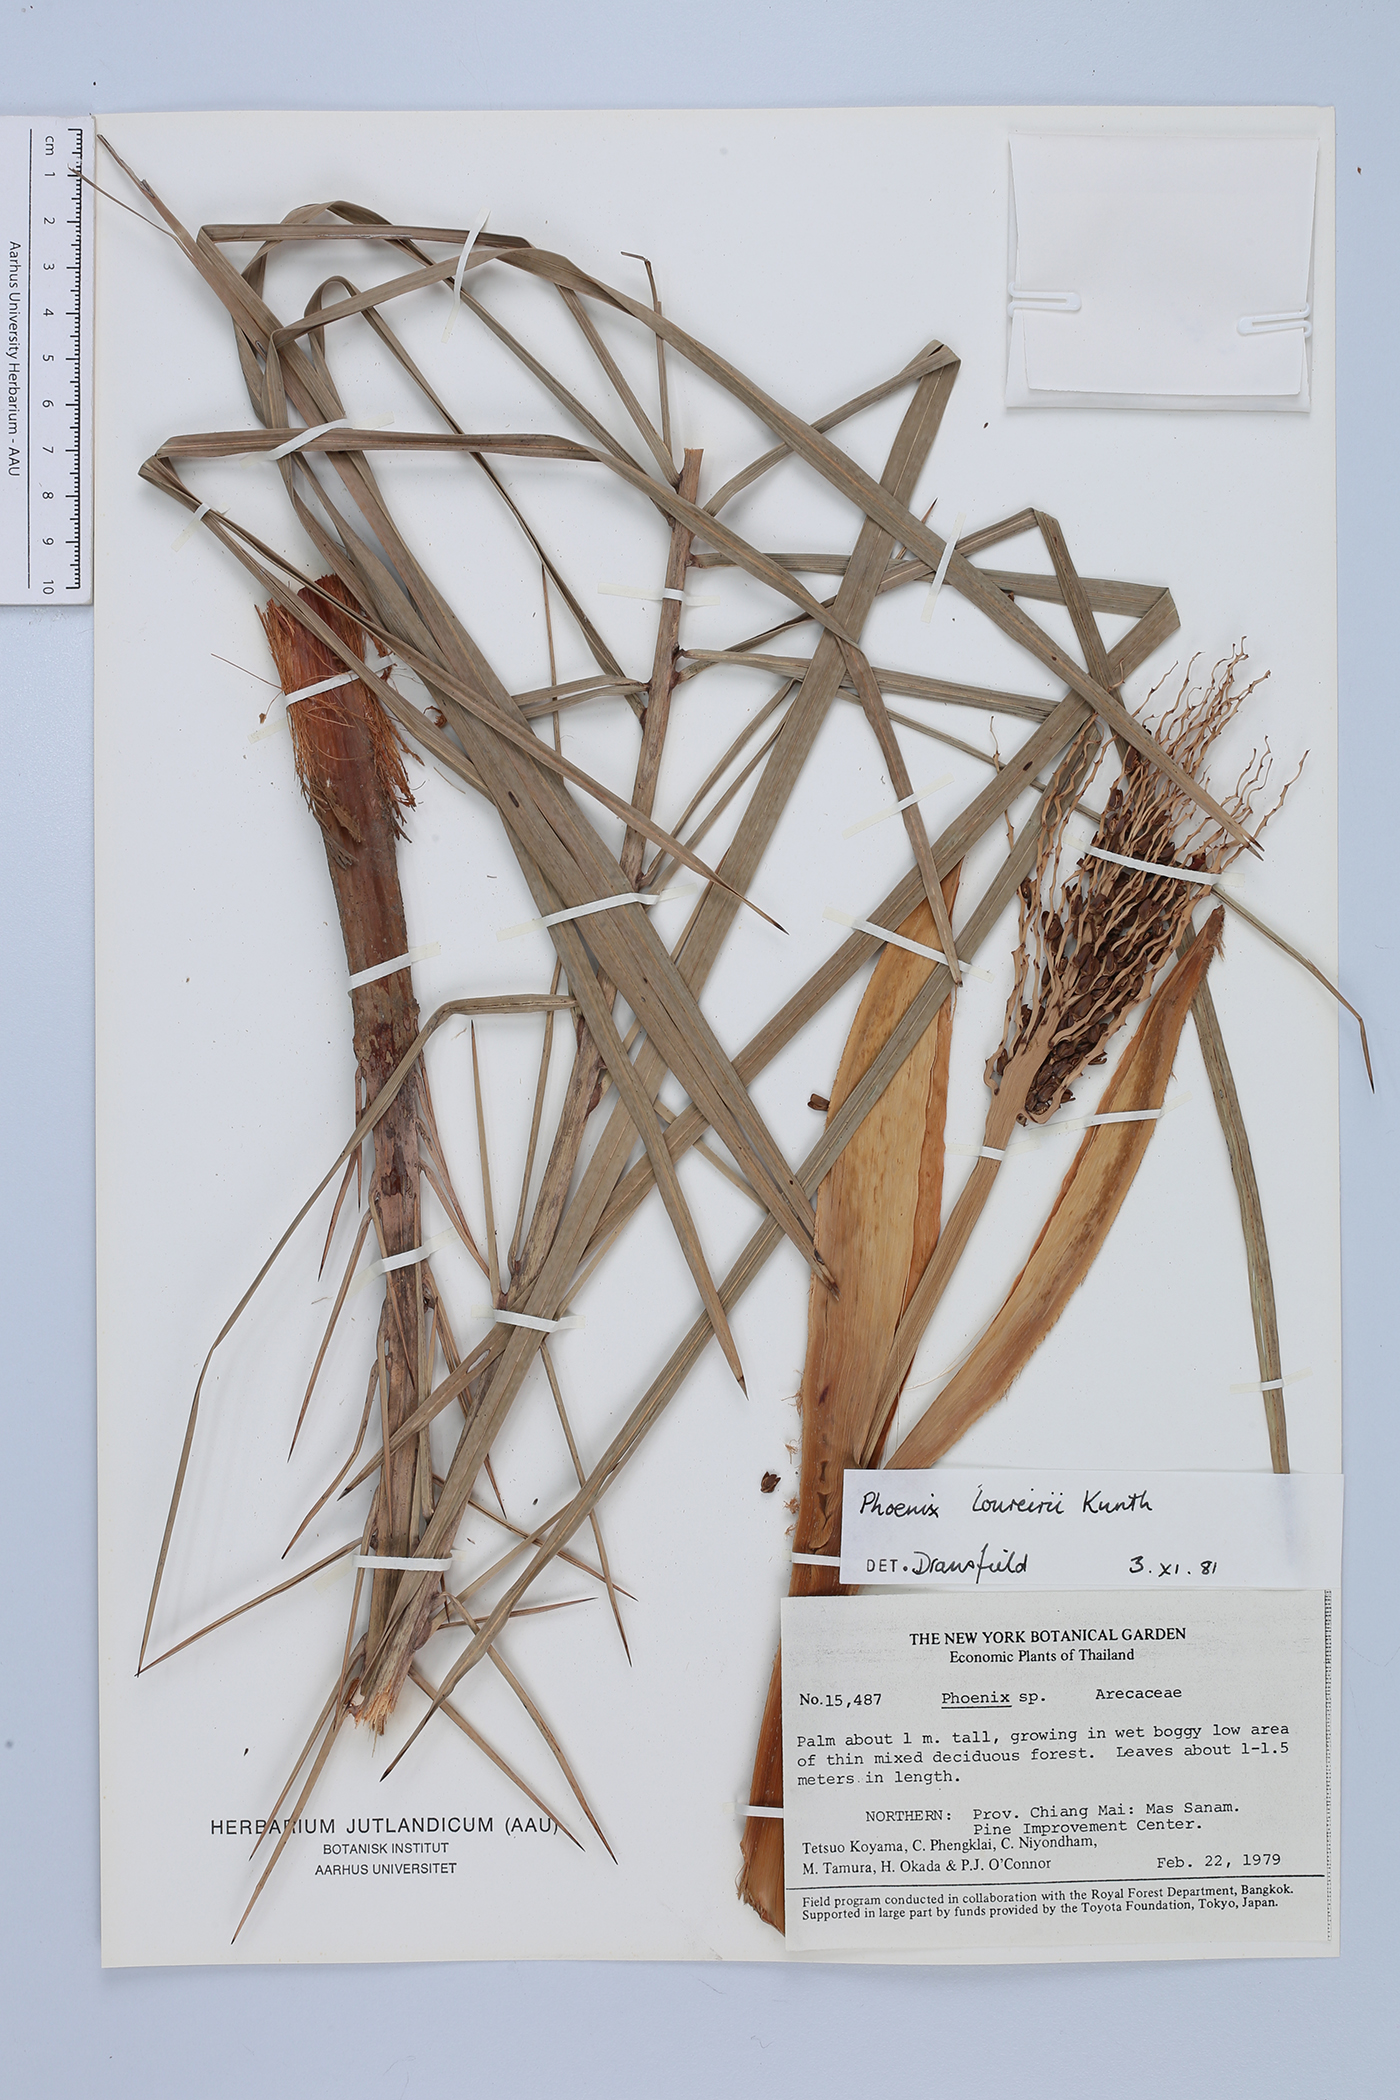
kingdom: Plantae
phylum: Tracheophyta
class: Liliopsida
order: Arecales
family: Arecaceae
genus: Phoenix
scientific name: Phoenix loureiroi
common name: Loureiro's palm
